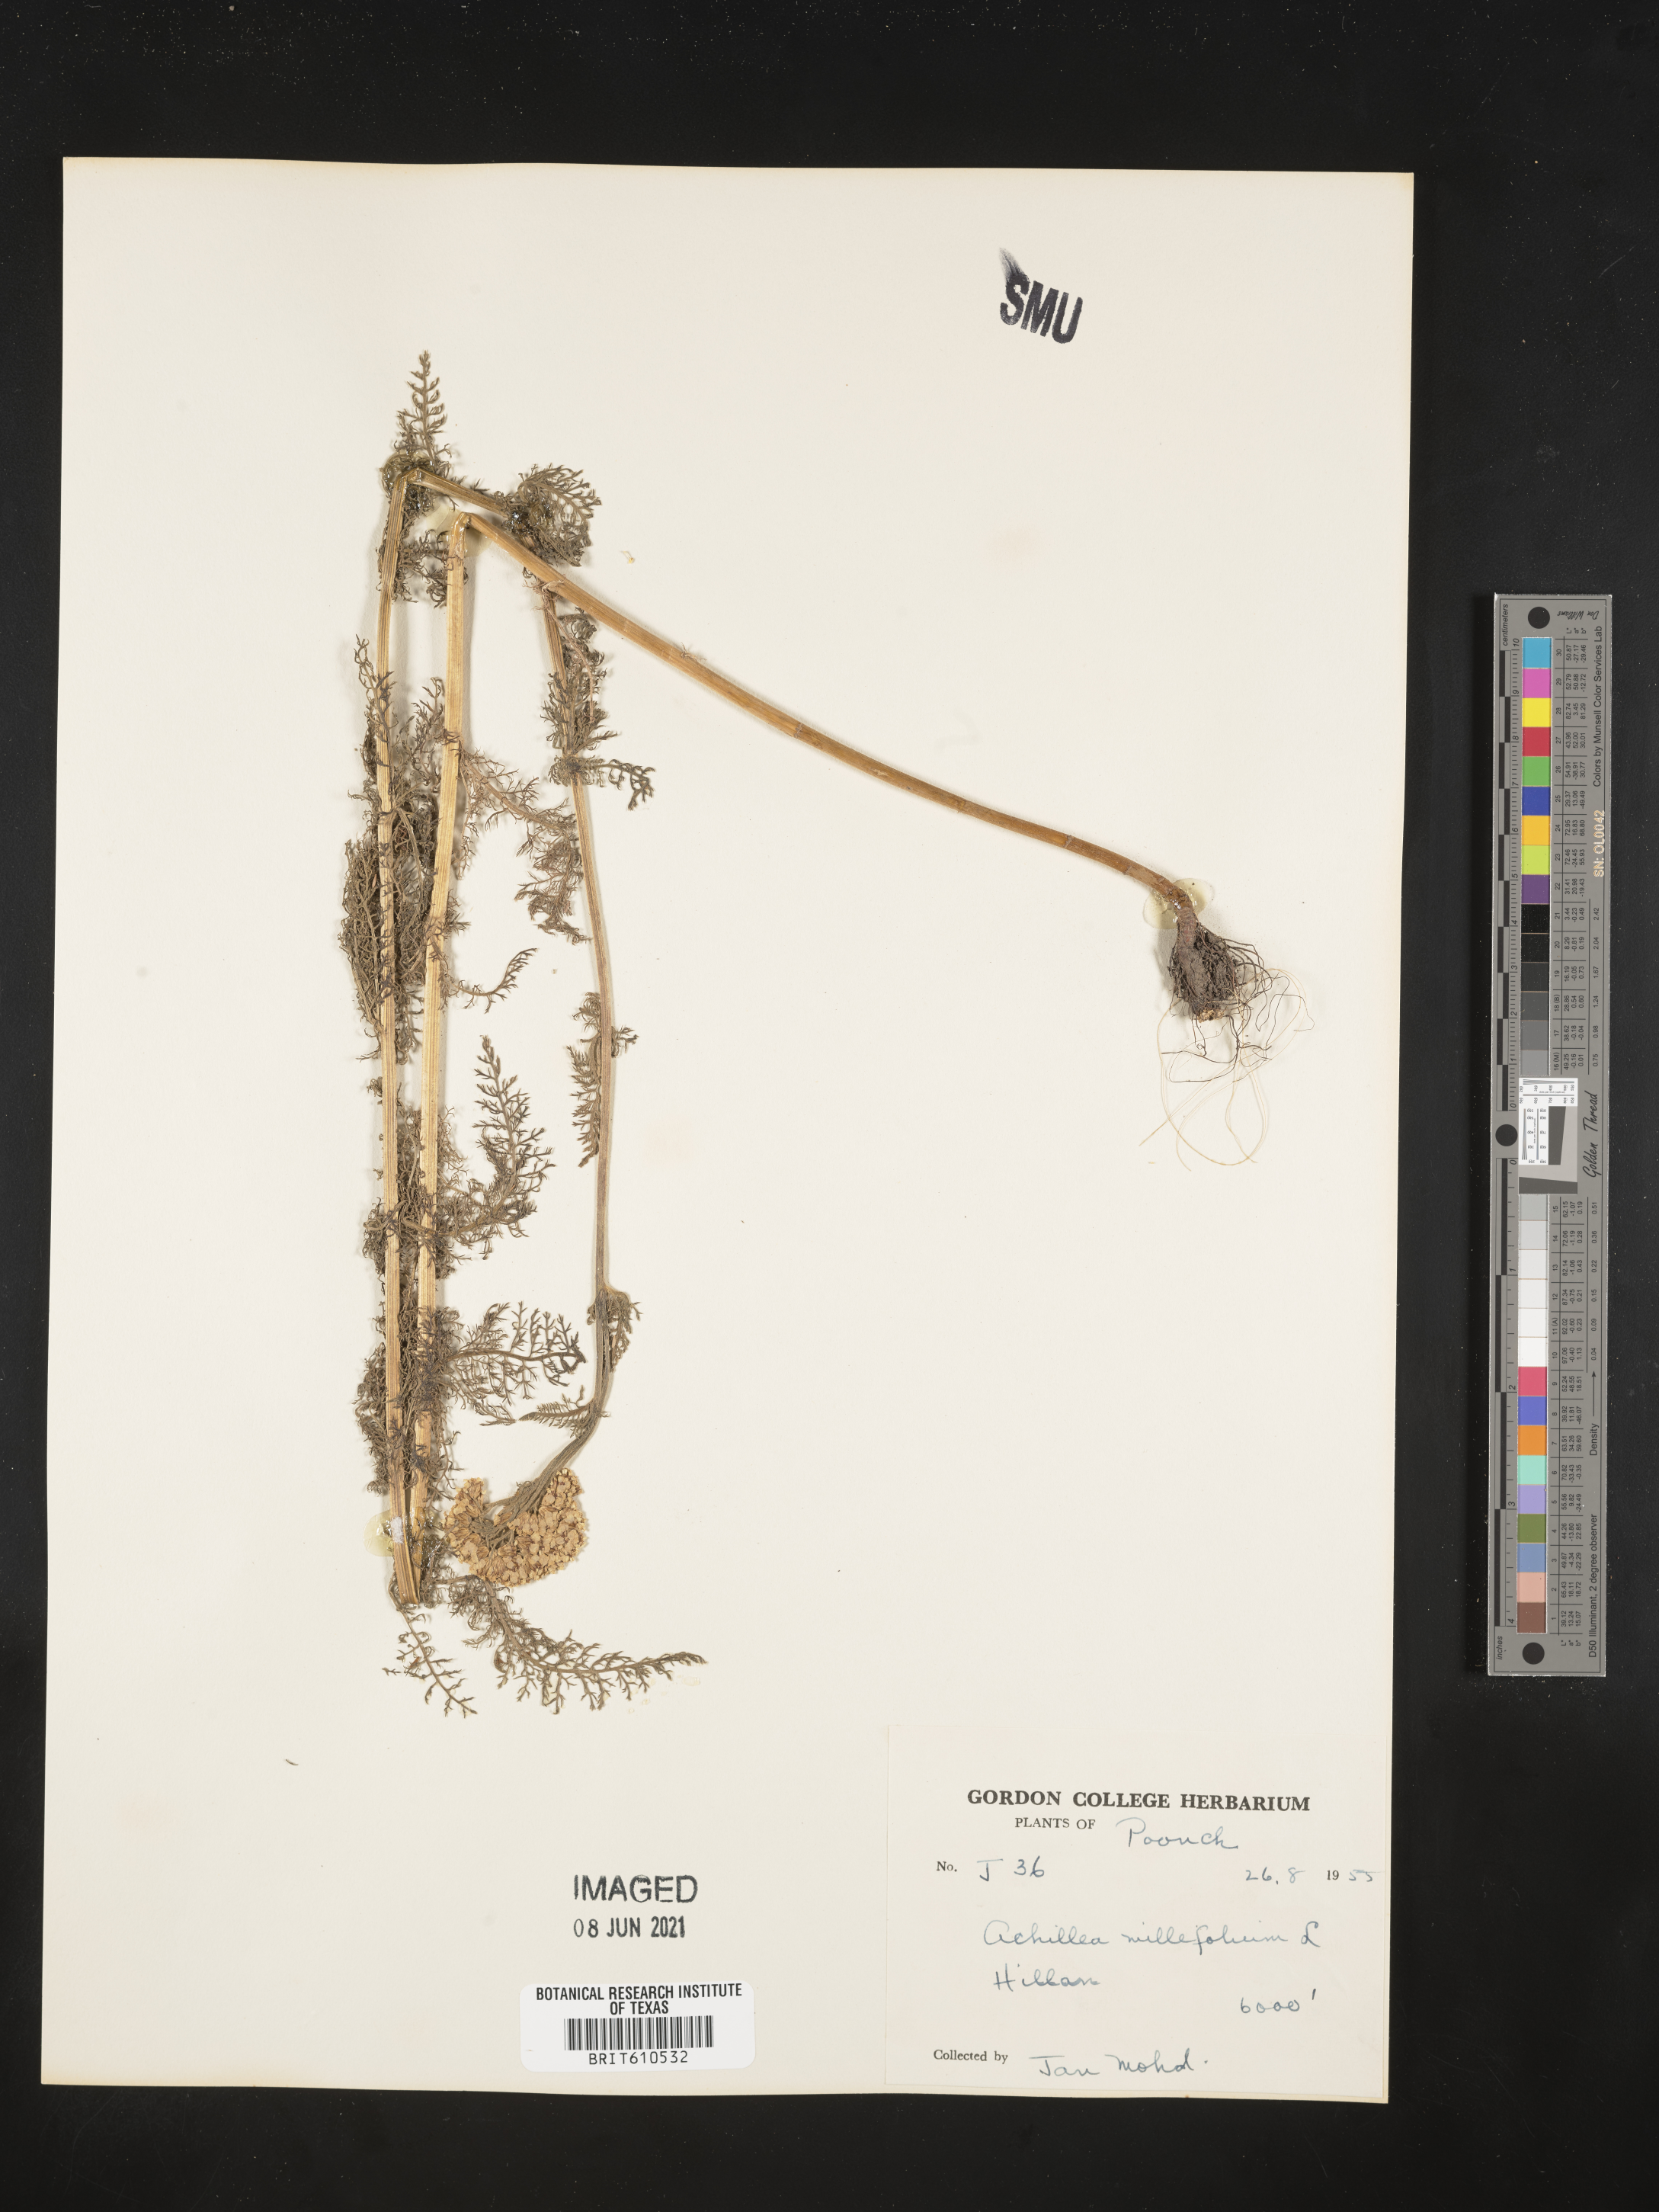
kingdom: Plantae
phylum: Tracheophyta
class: Magnoliopsida
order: Asterales
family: Asteraceae
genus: Achillea
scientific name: Achillea millefolium
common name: Yarrow
